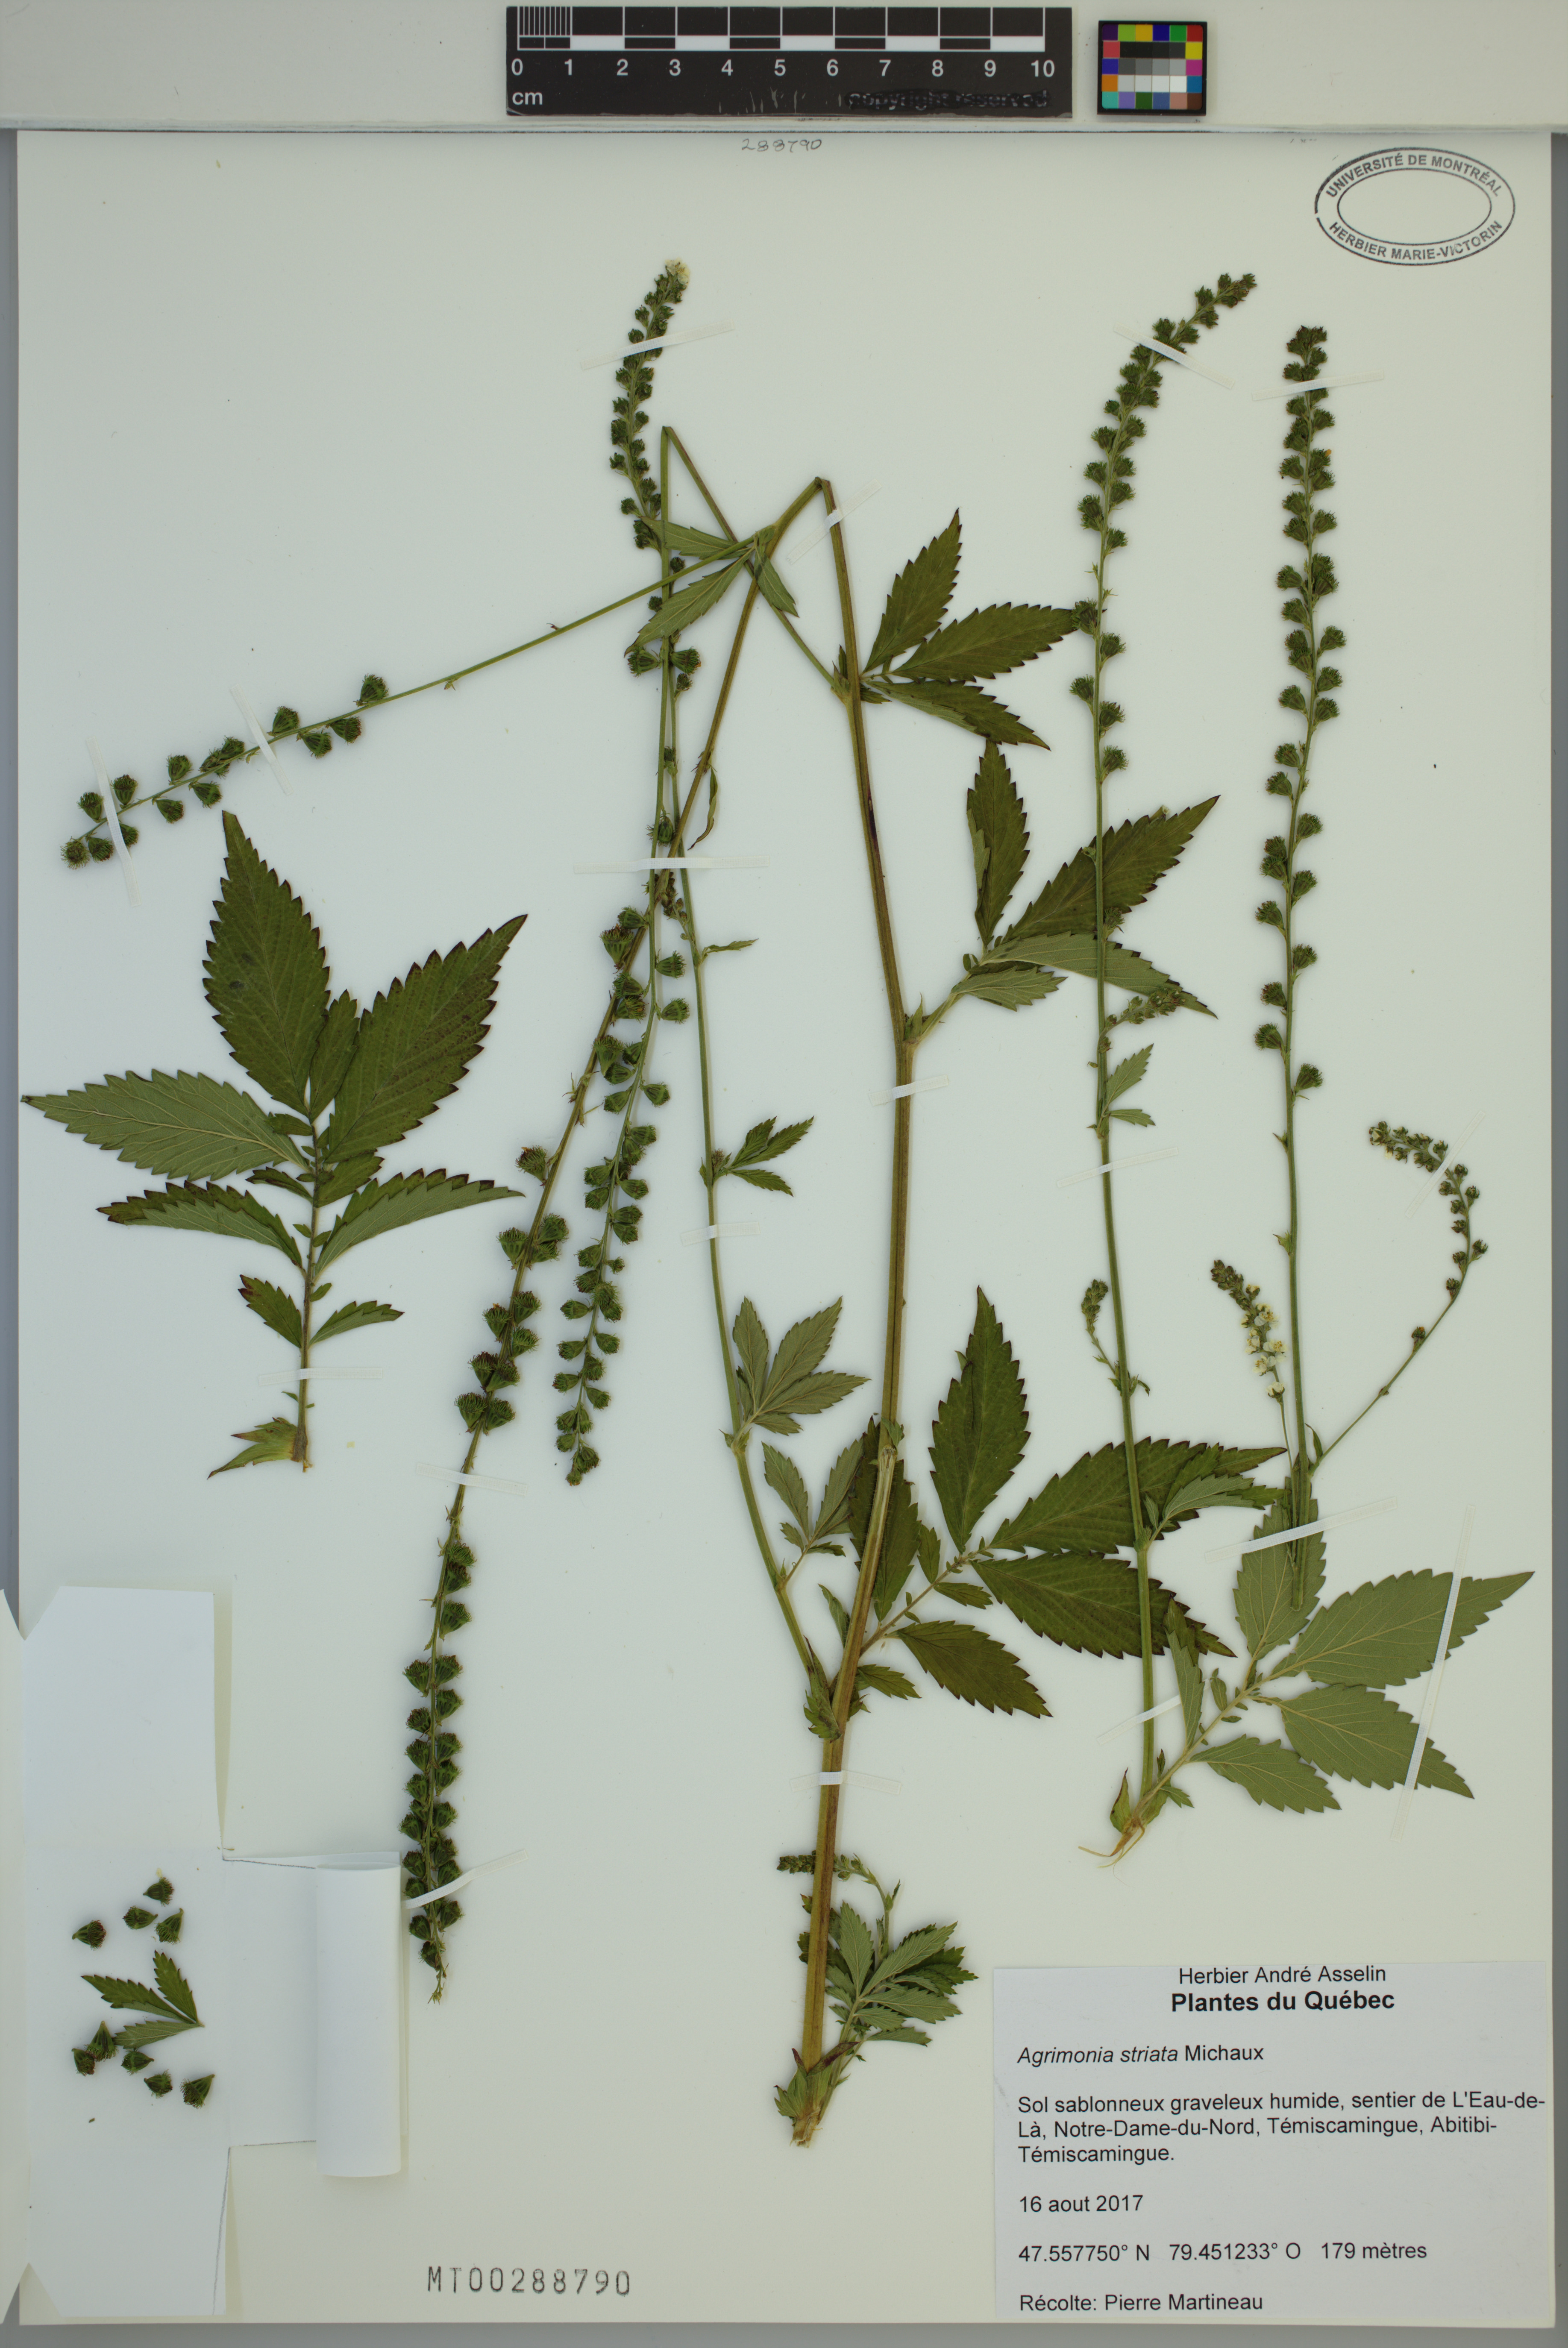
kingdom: Plantae
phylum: Tracheophyta
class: Magnoliopsida
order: Rosales
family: Rosaceae
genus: Agrimonia
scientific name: Agrimonia striata
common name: Britton's agrimony
